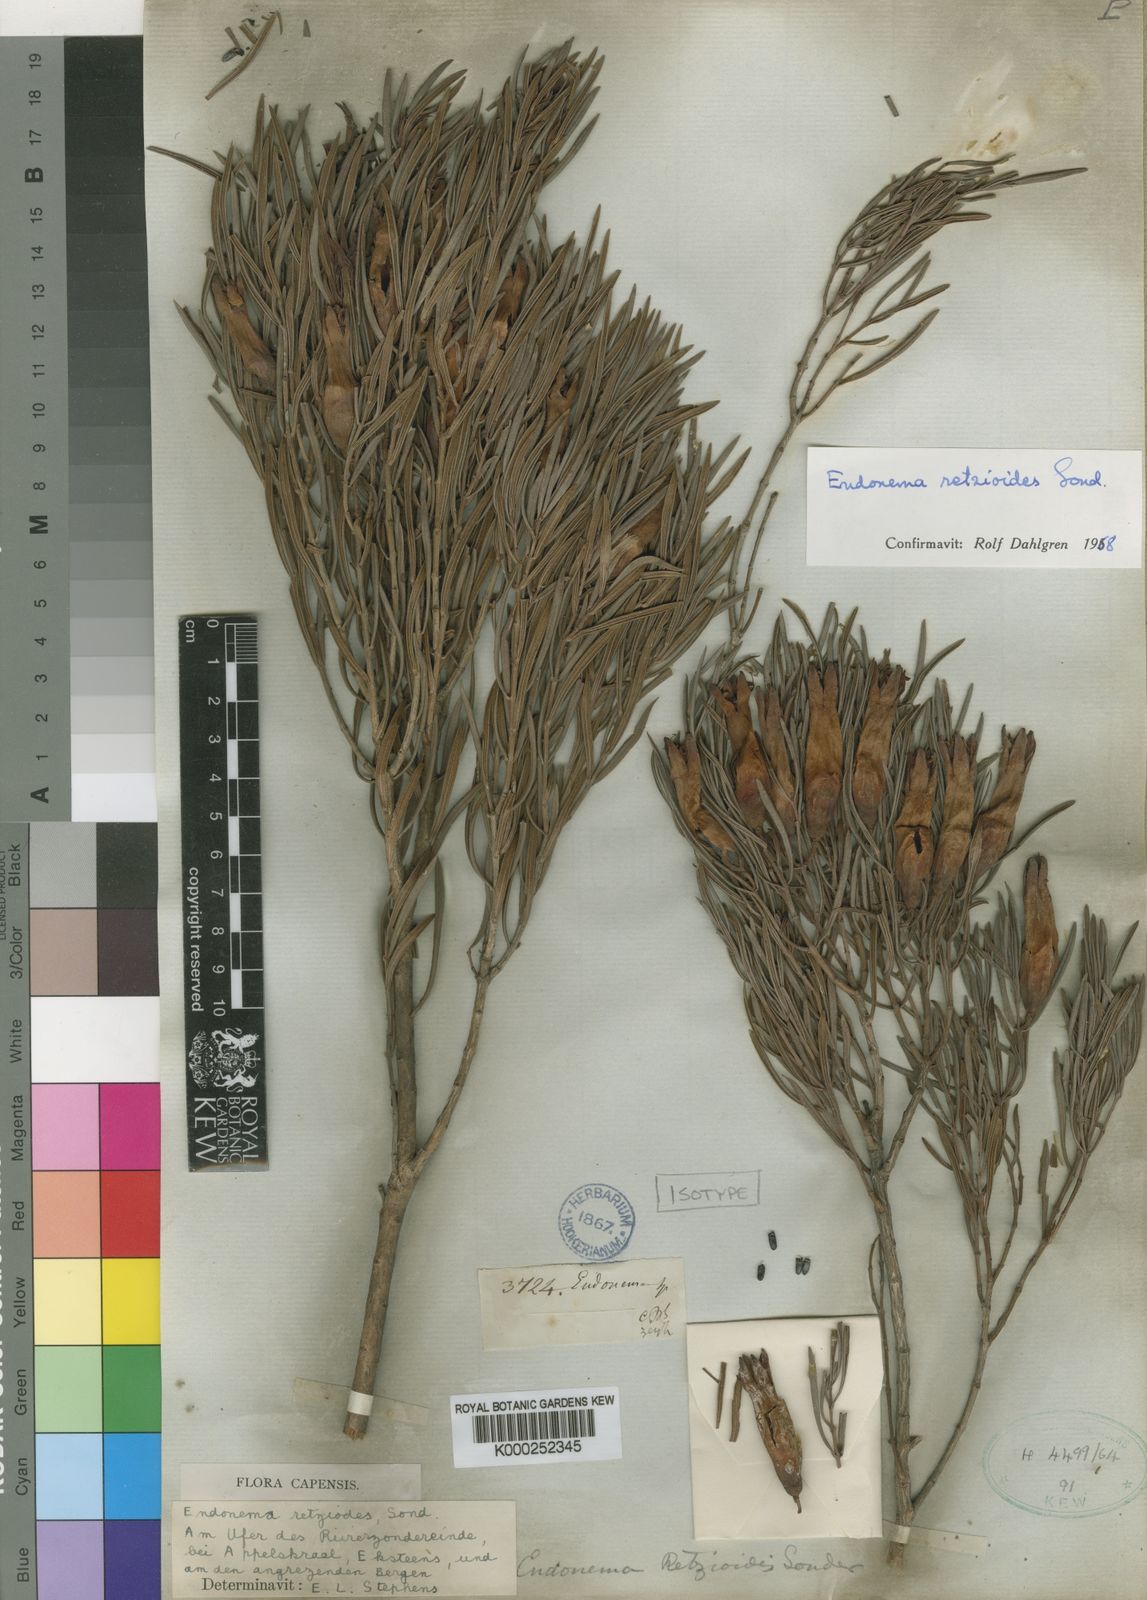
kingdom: Plantae
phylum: Tracheophyta
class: Magnoliopsida
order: Myrtales
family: Penaeaceae
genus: Endonema
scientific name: Endonema retzioides
